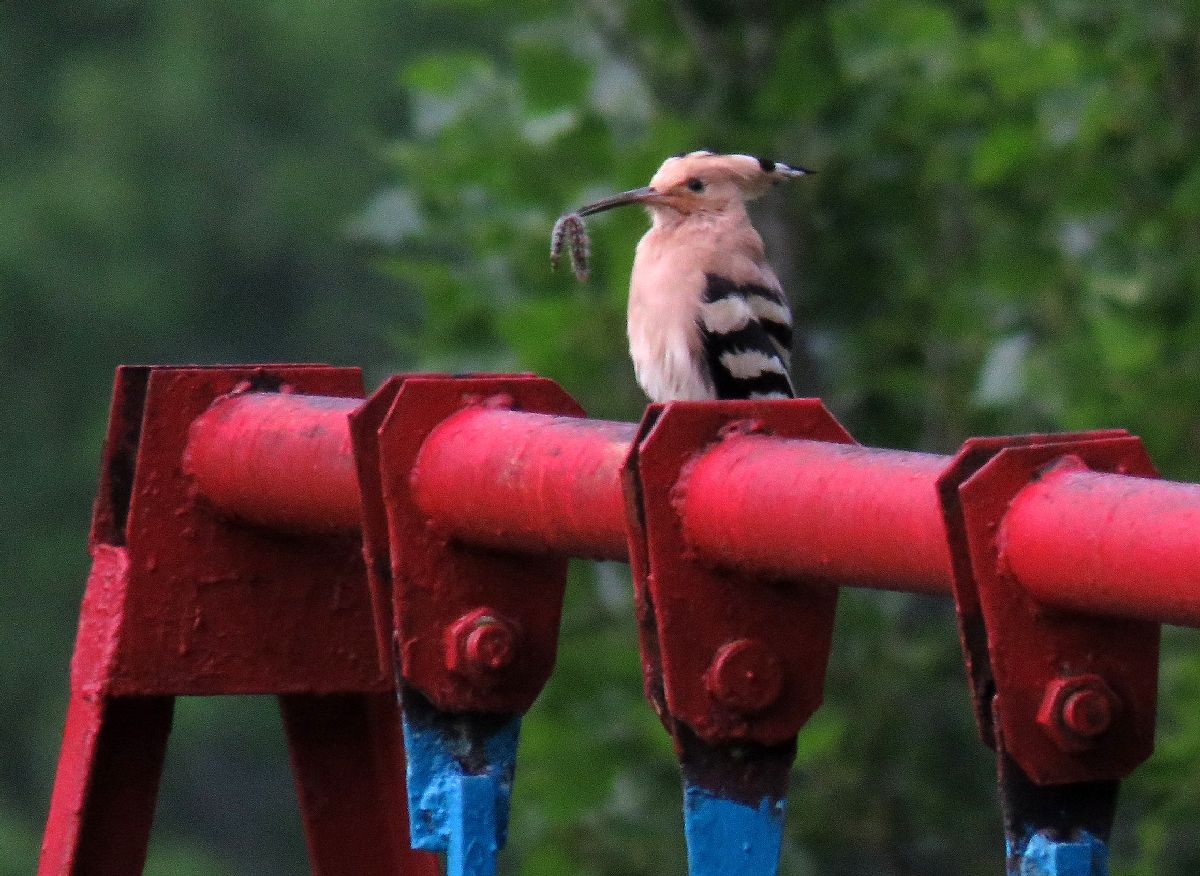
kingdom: Animalia
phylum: Chordata
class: Aves
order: Bucerotiformes
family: Upupidae
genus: Upupa
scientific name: Upupa epops
